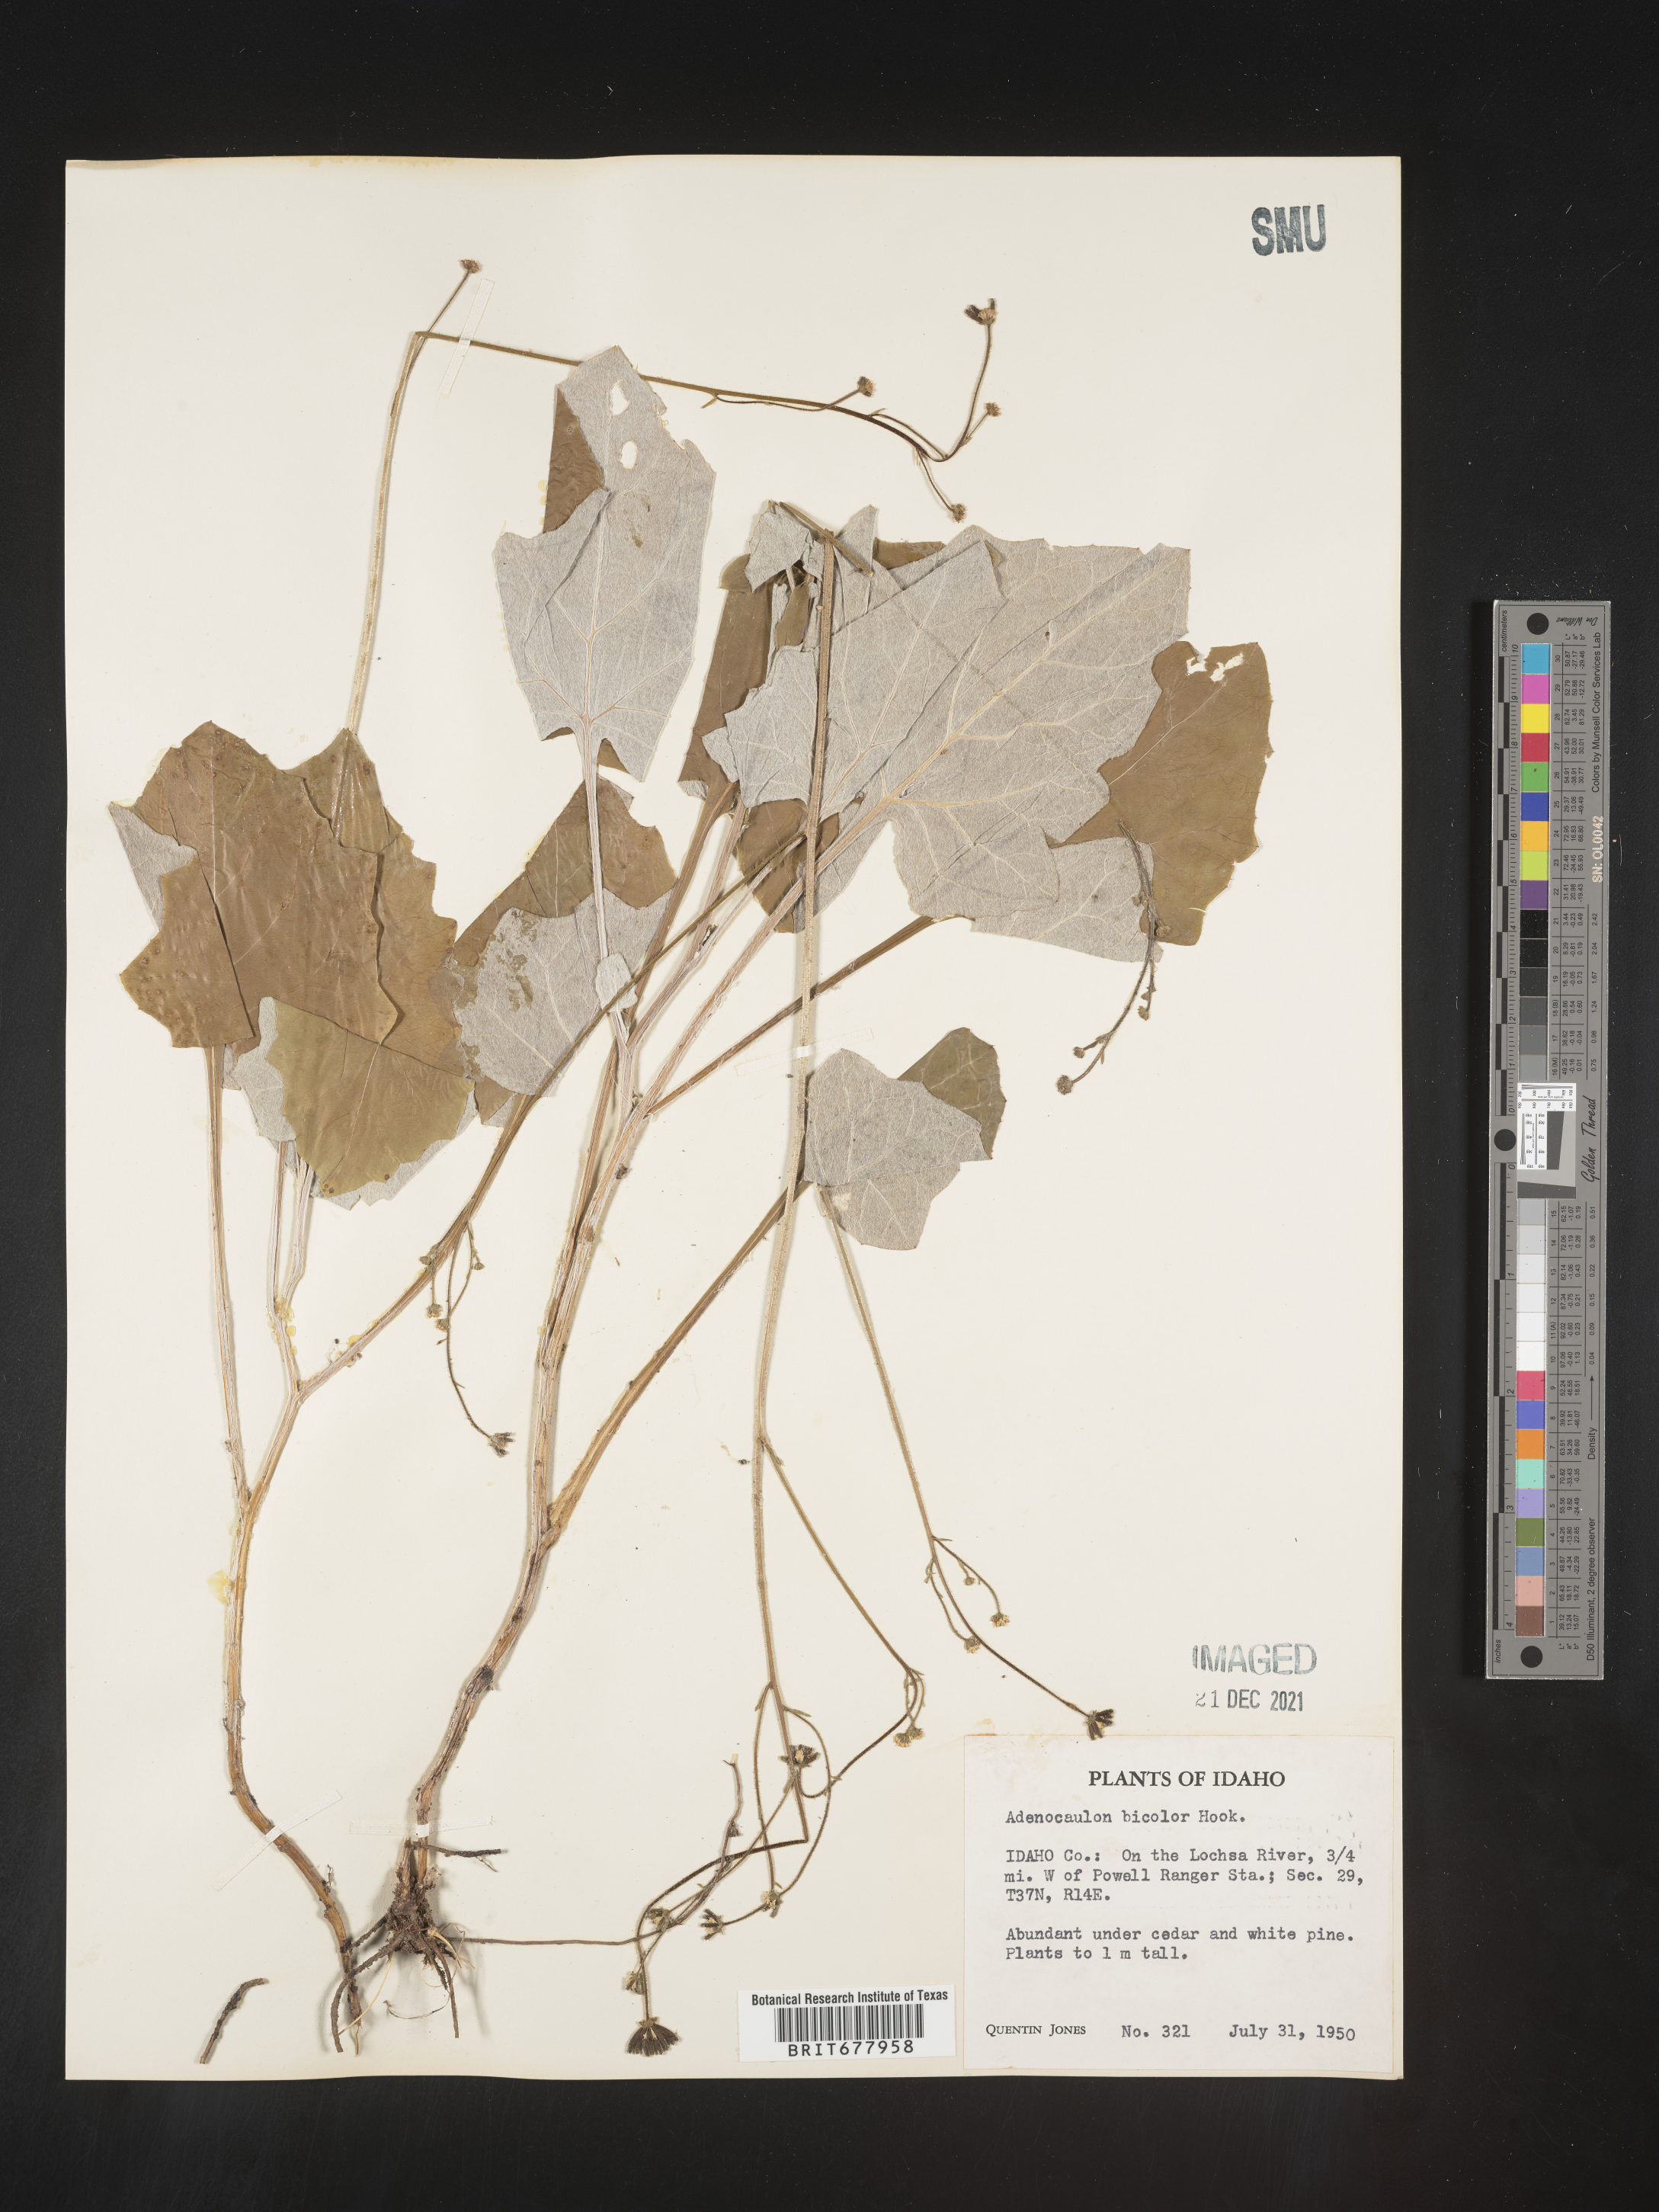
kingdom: Plantae
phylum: Tracheophyta
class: Magnoliopsida
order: Asterales
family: Asteraceae
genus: Adenocaulon
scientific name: Adenocaulon
